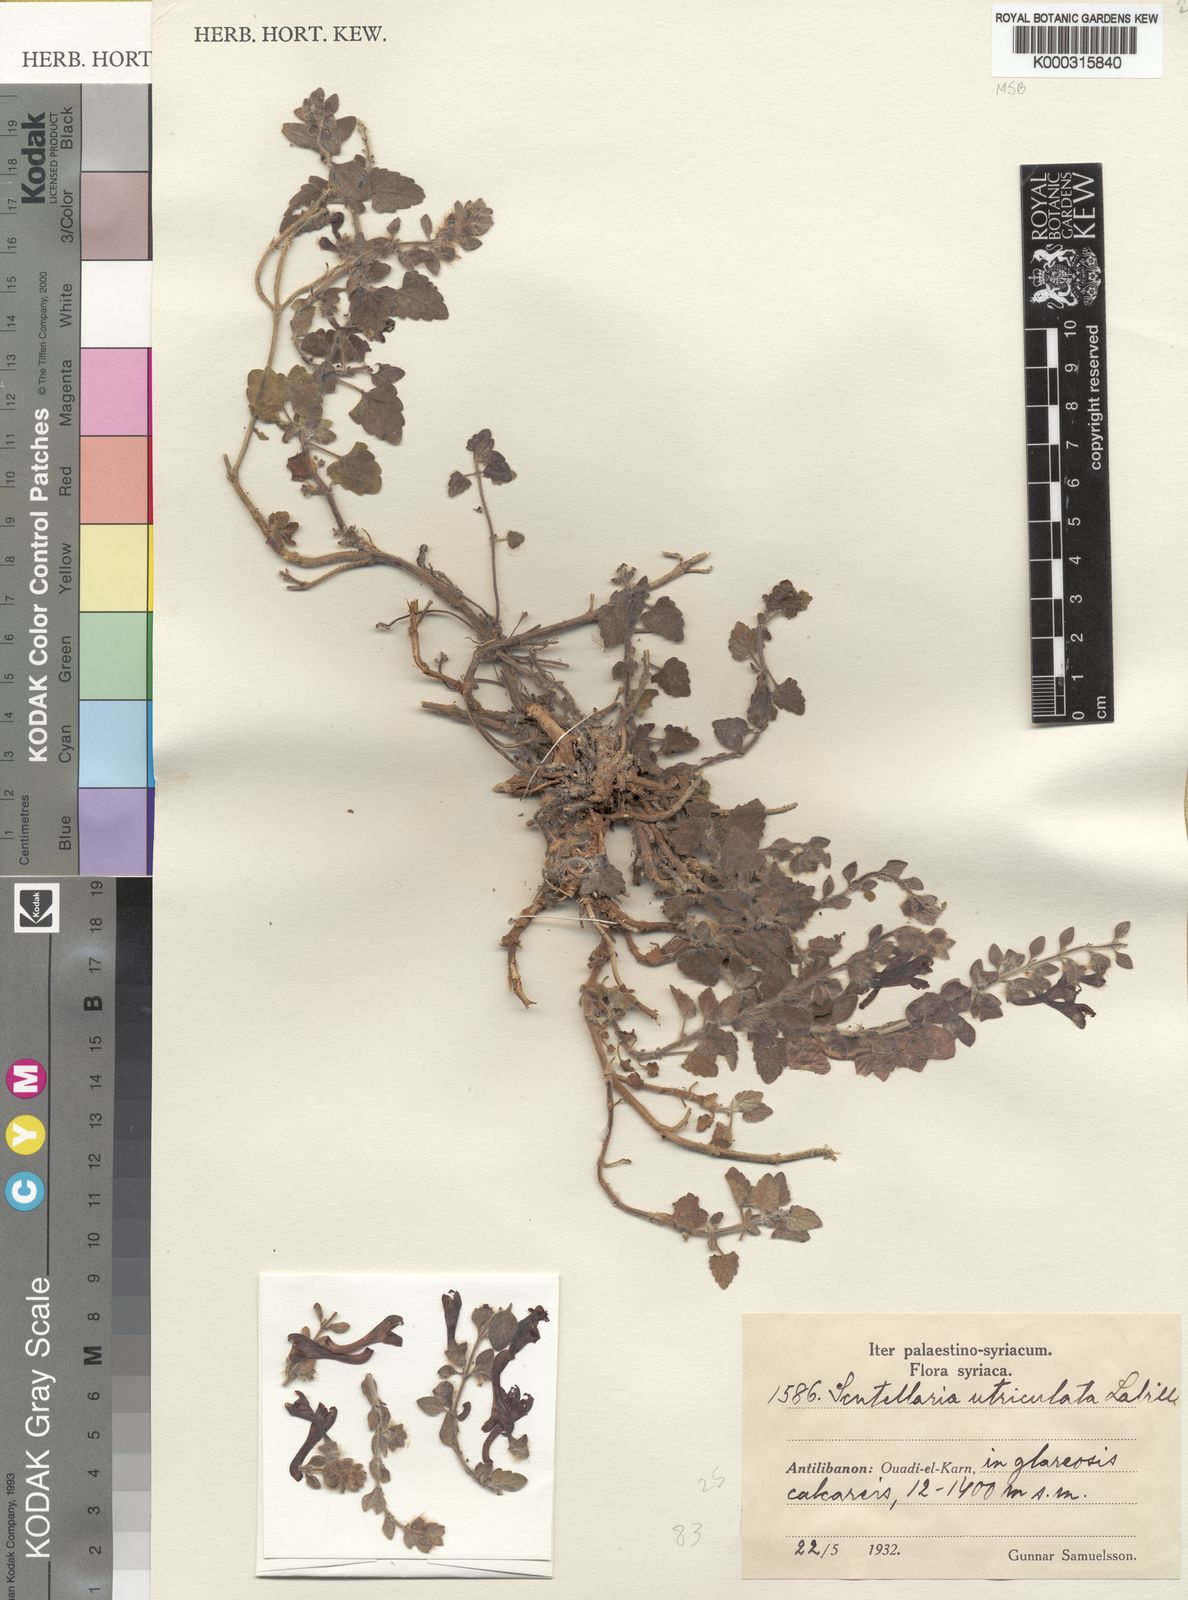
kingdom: Plantae
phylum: Tracheophyta
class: Magnoliopsida
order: Lamiales
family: Lamiaceae
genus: Scutellaria
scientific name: Scutellaria utriculata
